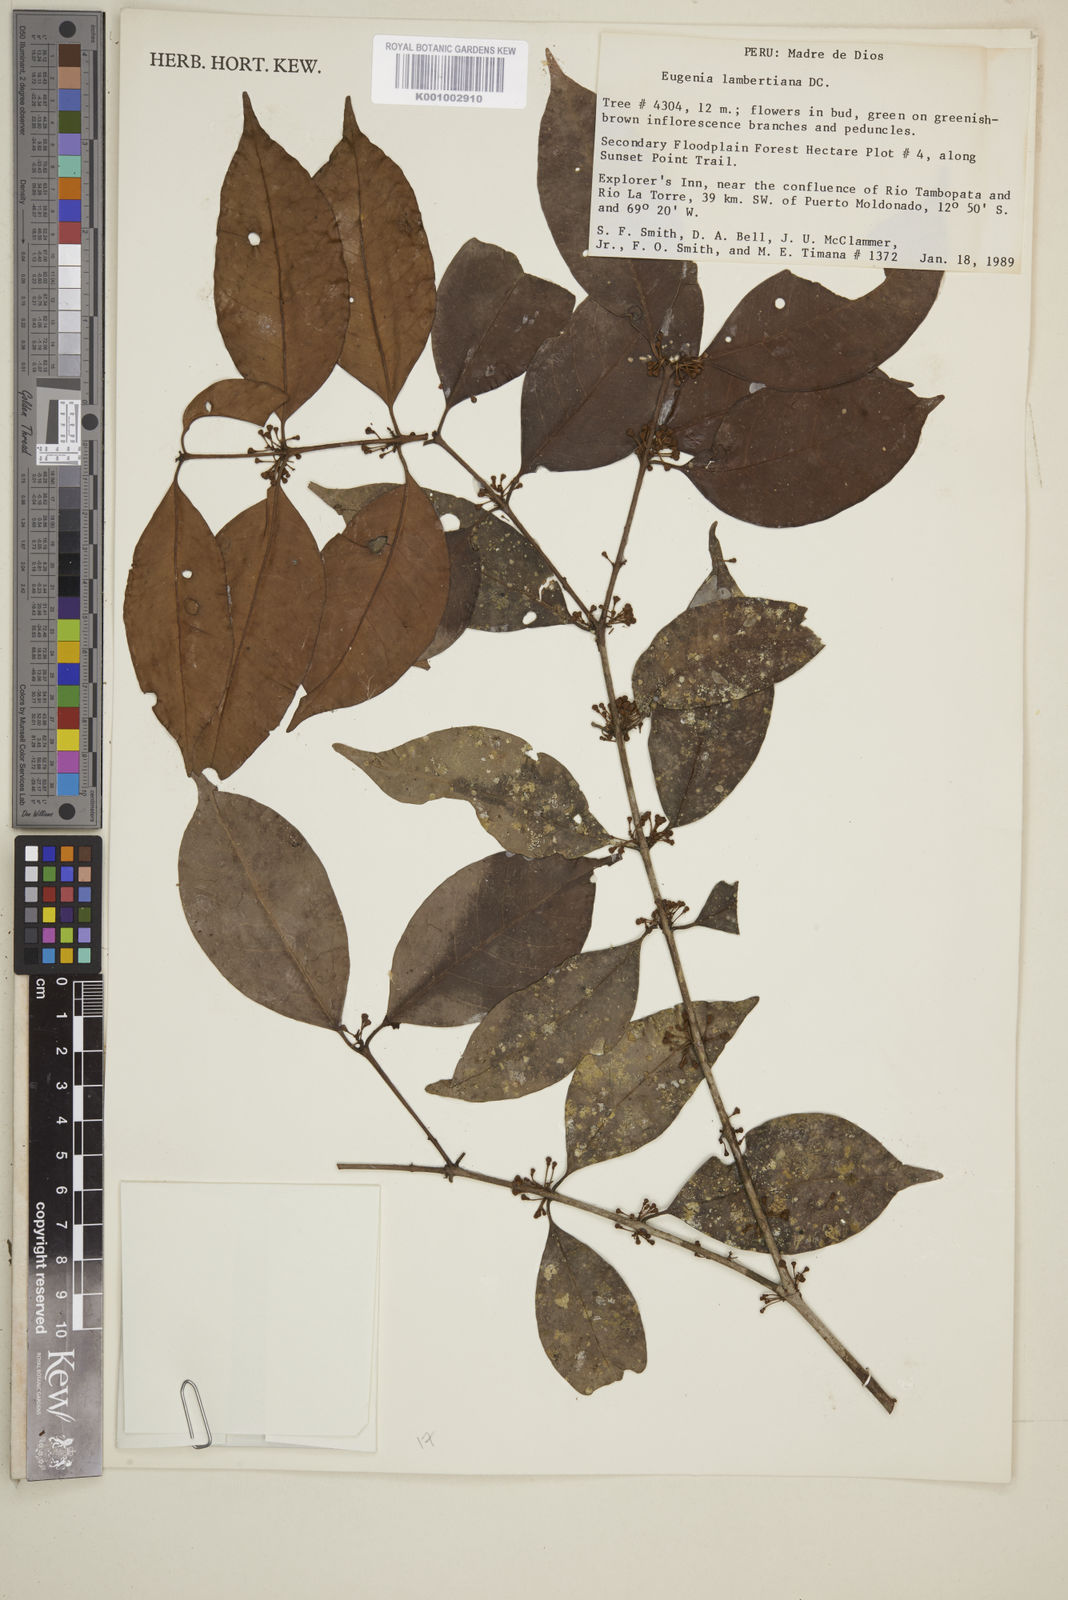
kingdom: Plantae
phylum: Tracheophyta
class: Magnoliopsida
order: Myrtales
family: Myrtaceae
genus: Eugenia
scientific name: Eugenia lambertiana
